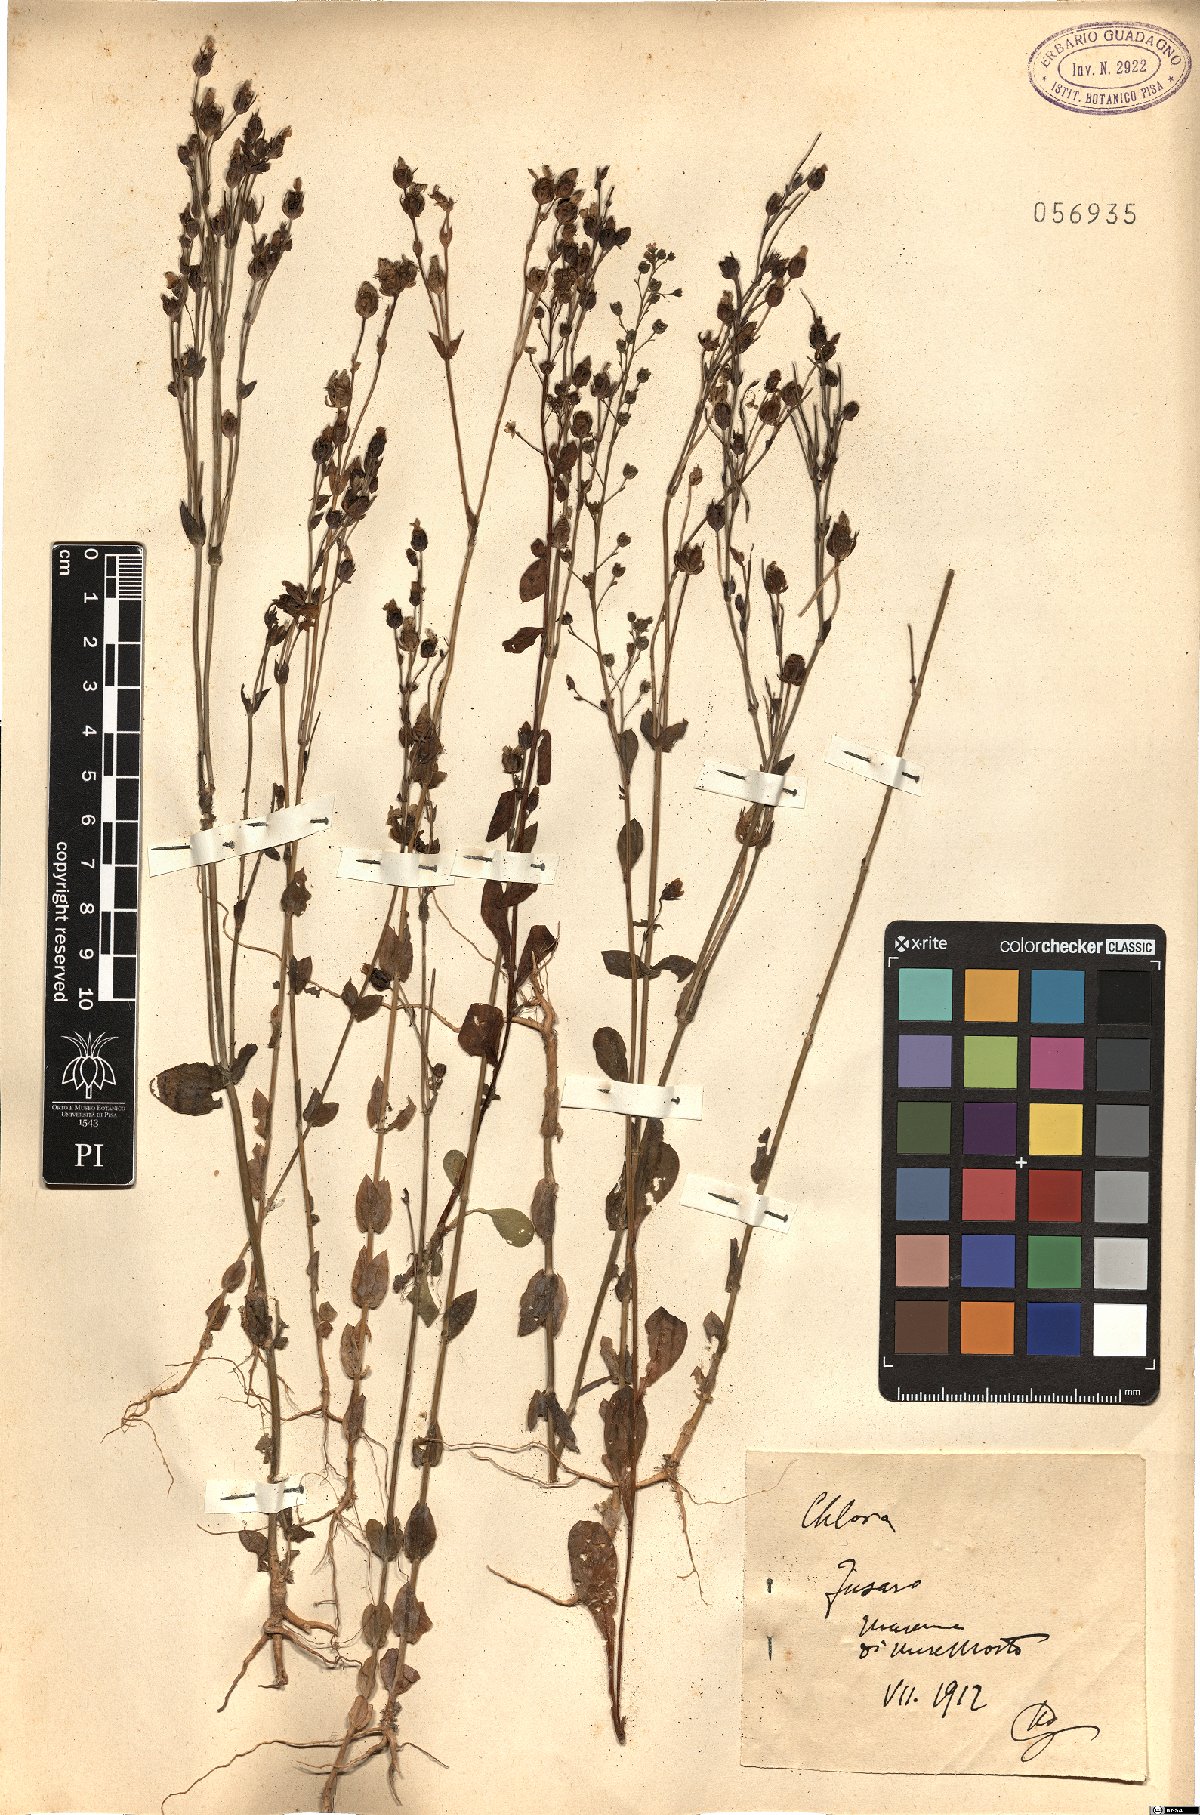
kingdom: Plantae
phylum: Tracheophyta
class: Magnoliopsida
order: Gentianales
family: Gentianaceae
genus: Blackstonia
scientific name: Blackstonia
